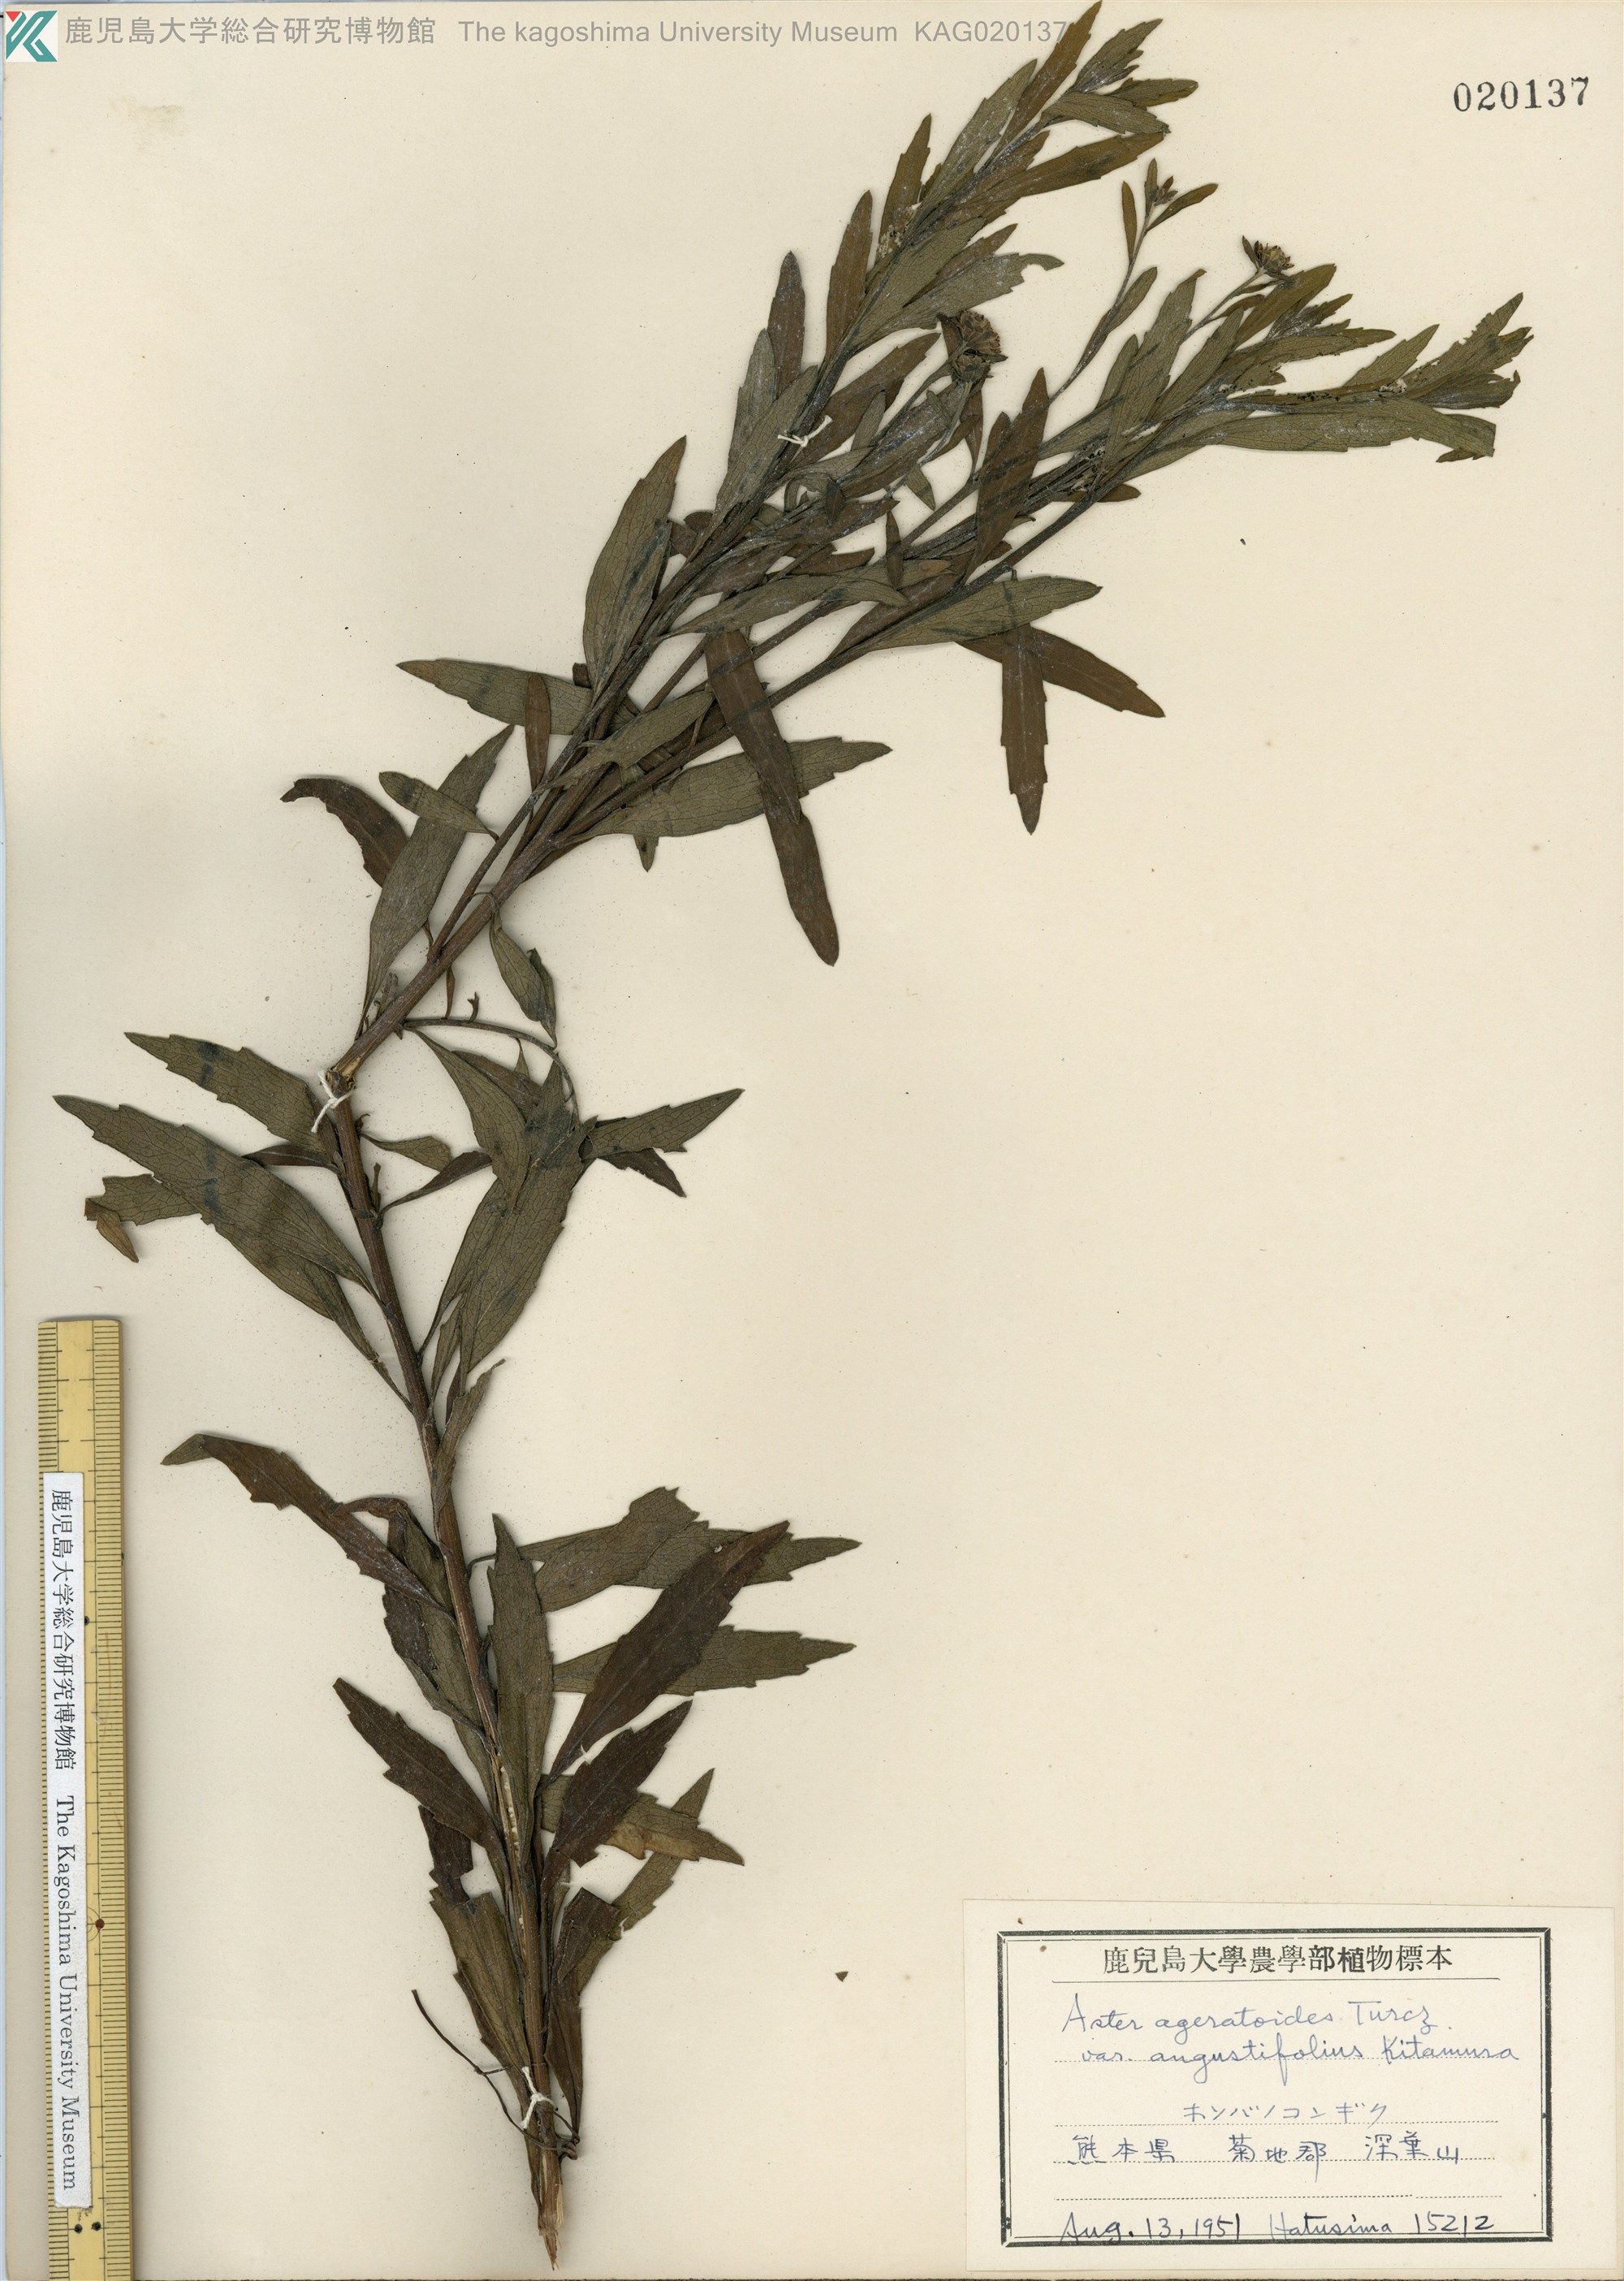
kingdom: Plantae
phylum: Tracheophyta
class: Magnoliopsida
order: Asterales
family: Asteraceae
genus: Aster
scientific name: Aster microcephalus
